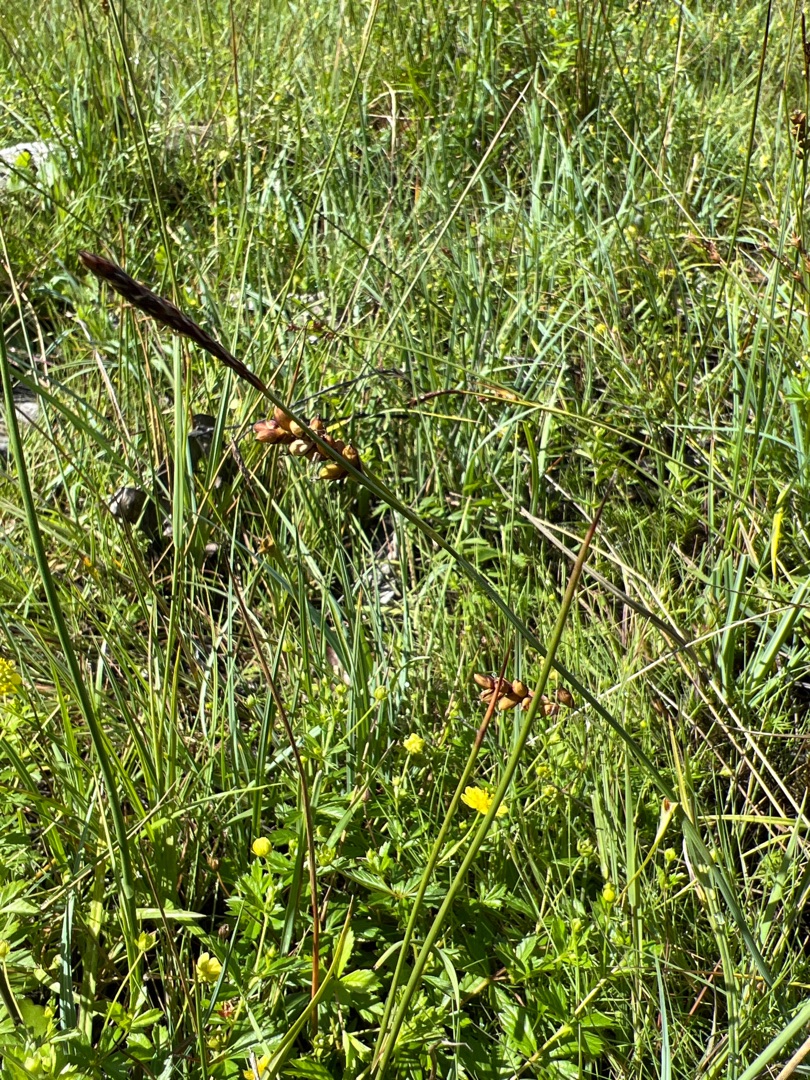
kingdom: Plantae
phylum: Tracheophyta
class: Liliopsida
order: Poales
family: Cyperaceae
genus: Carex
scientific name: Carex panicea
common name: Hirse-star
